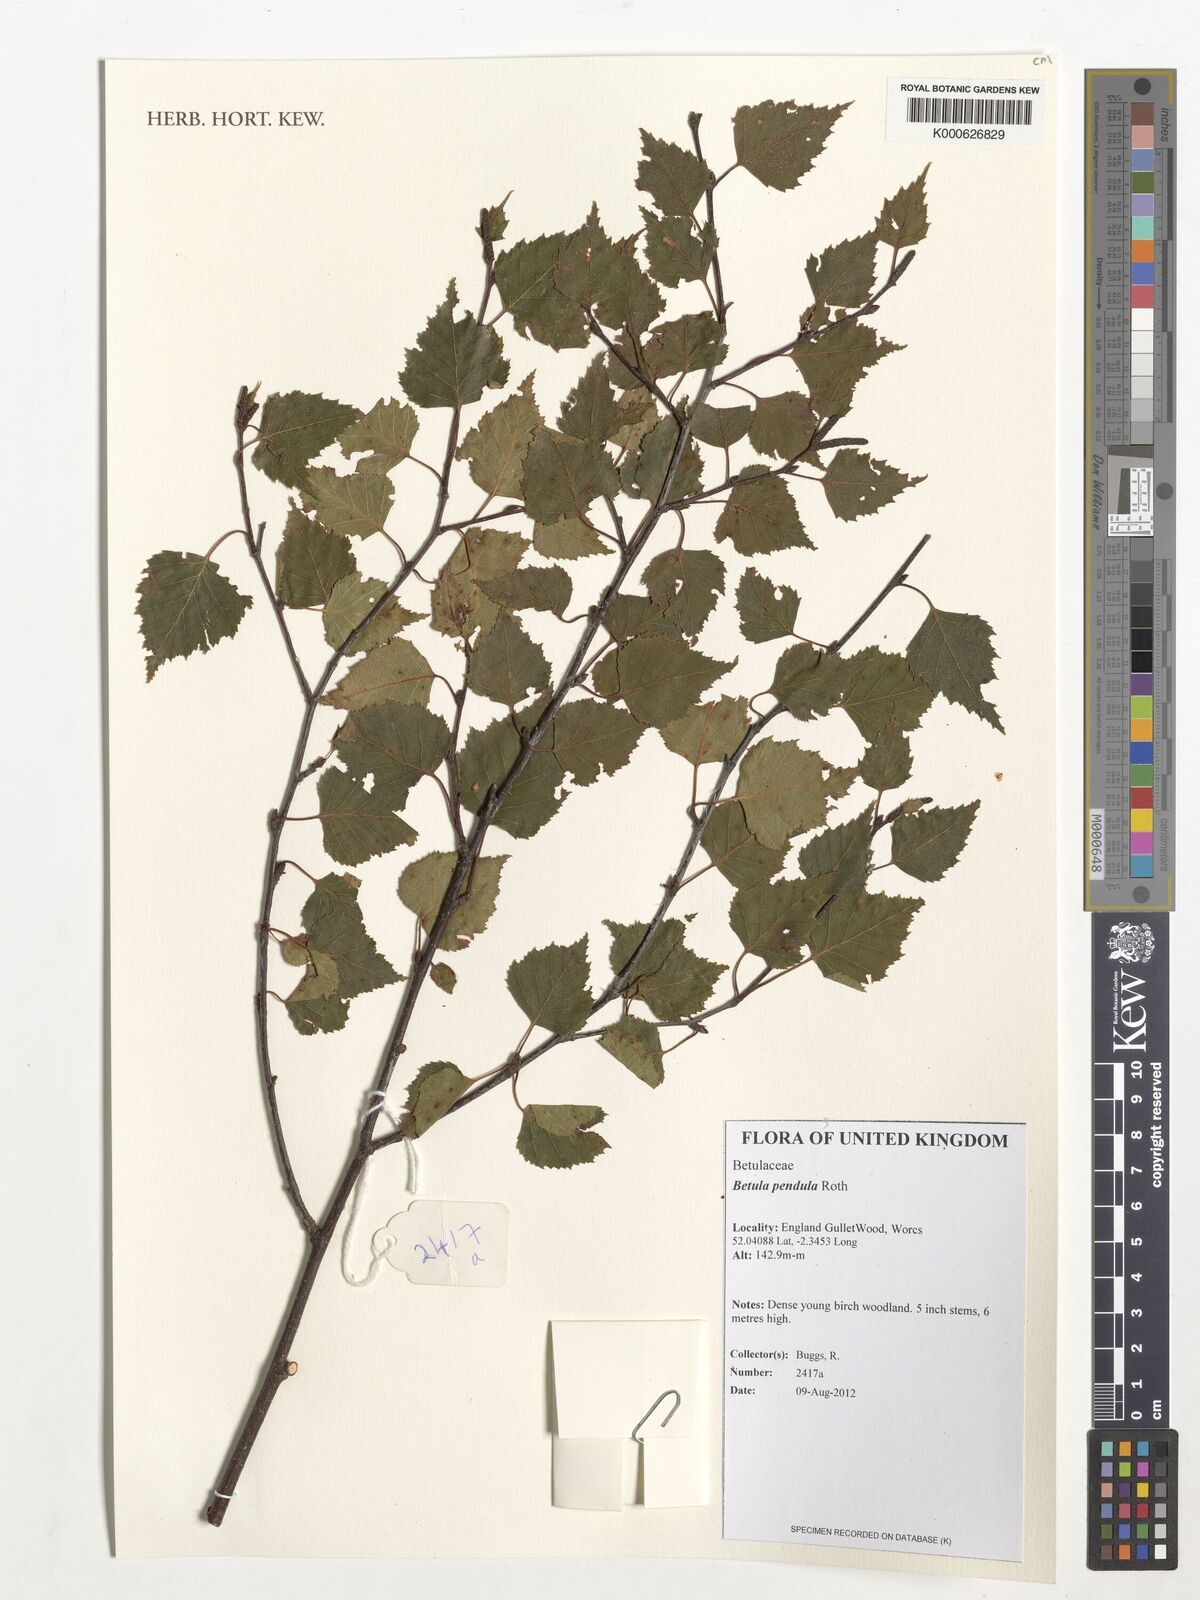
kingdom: Plantae
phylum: Tracheophyta
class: Magnoliopsida
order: Fagales
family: Betulaceae
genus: Betula
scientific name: Betula pendula
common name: Silver birch
